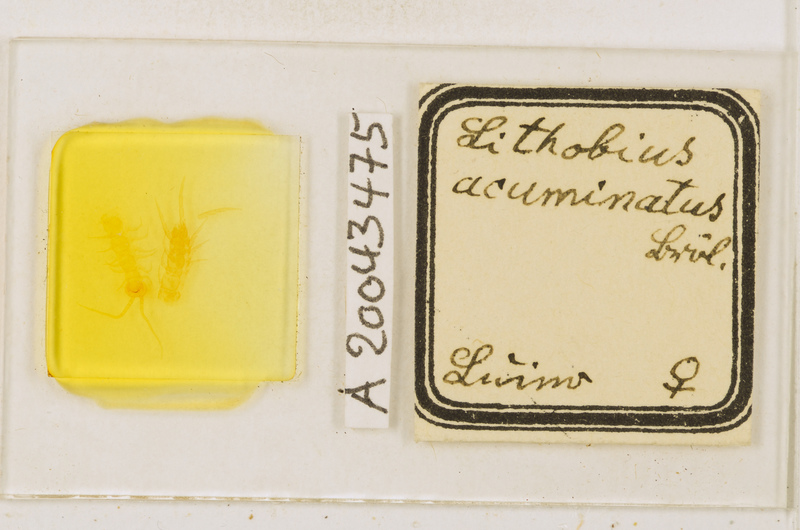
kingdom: Animalia
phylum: Arthropoda
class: Chilopoda
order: Lithobiomorpha
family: Lithobiidae
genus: Lithobius
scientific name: Lithobius acuminatus
